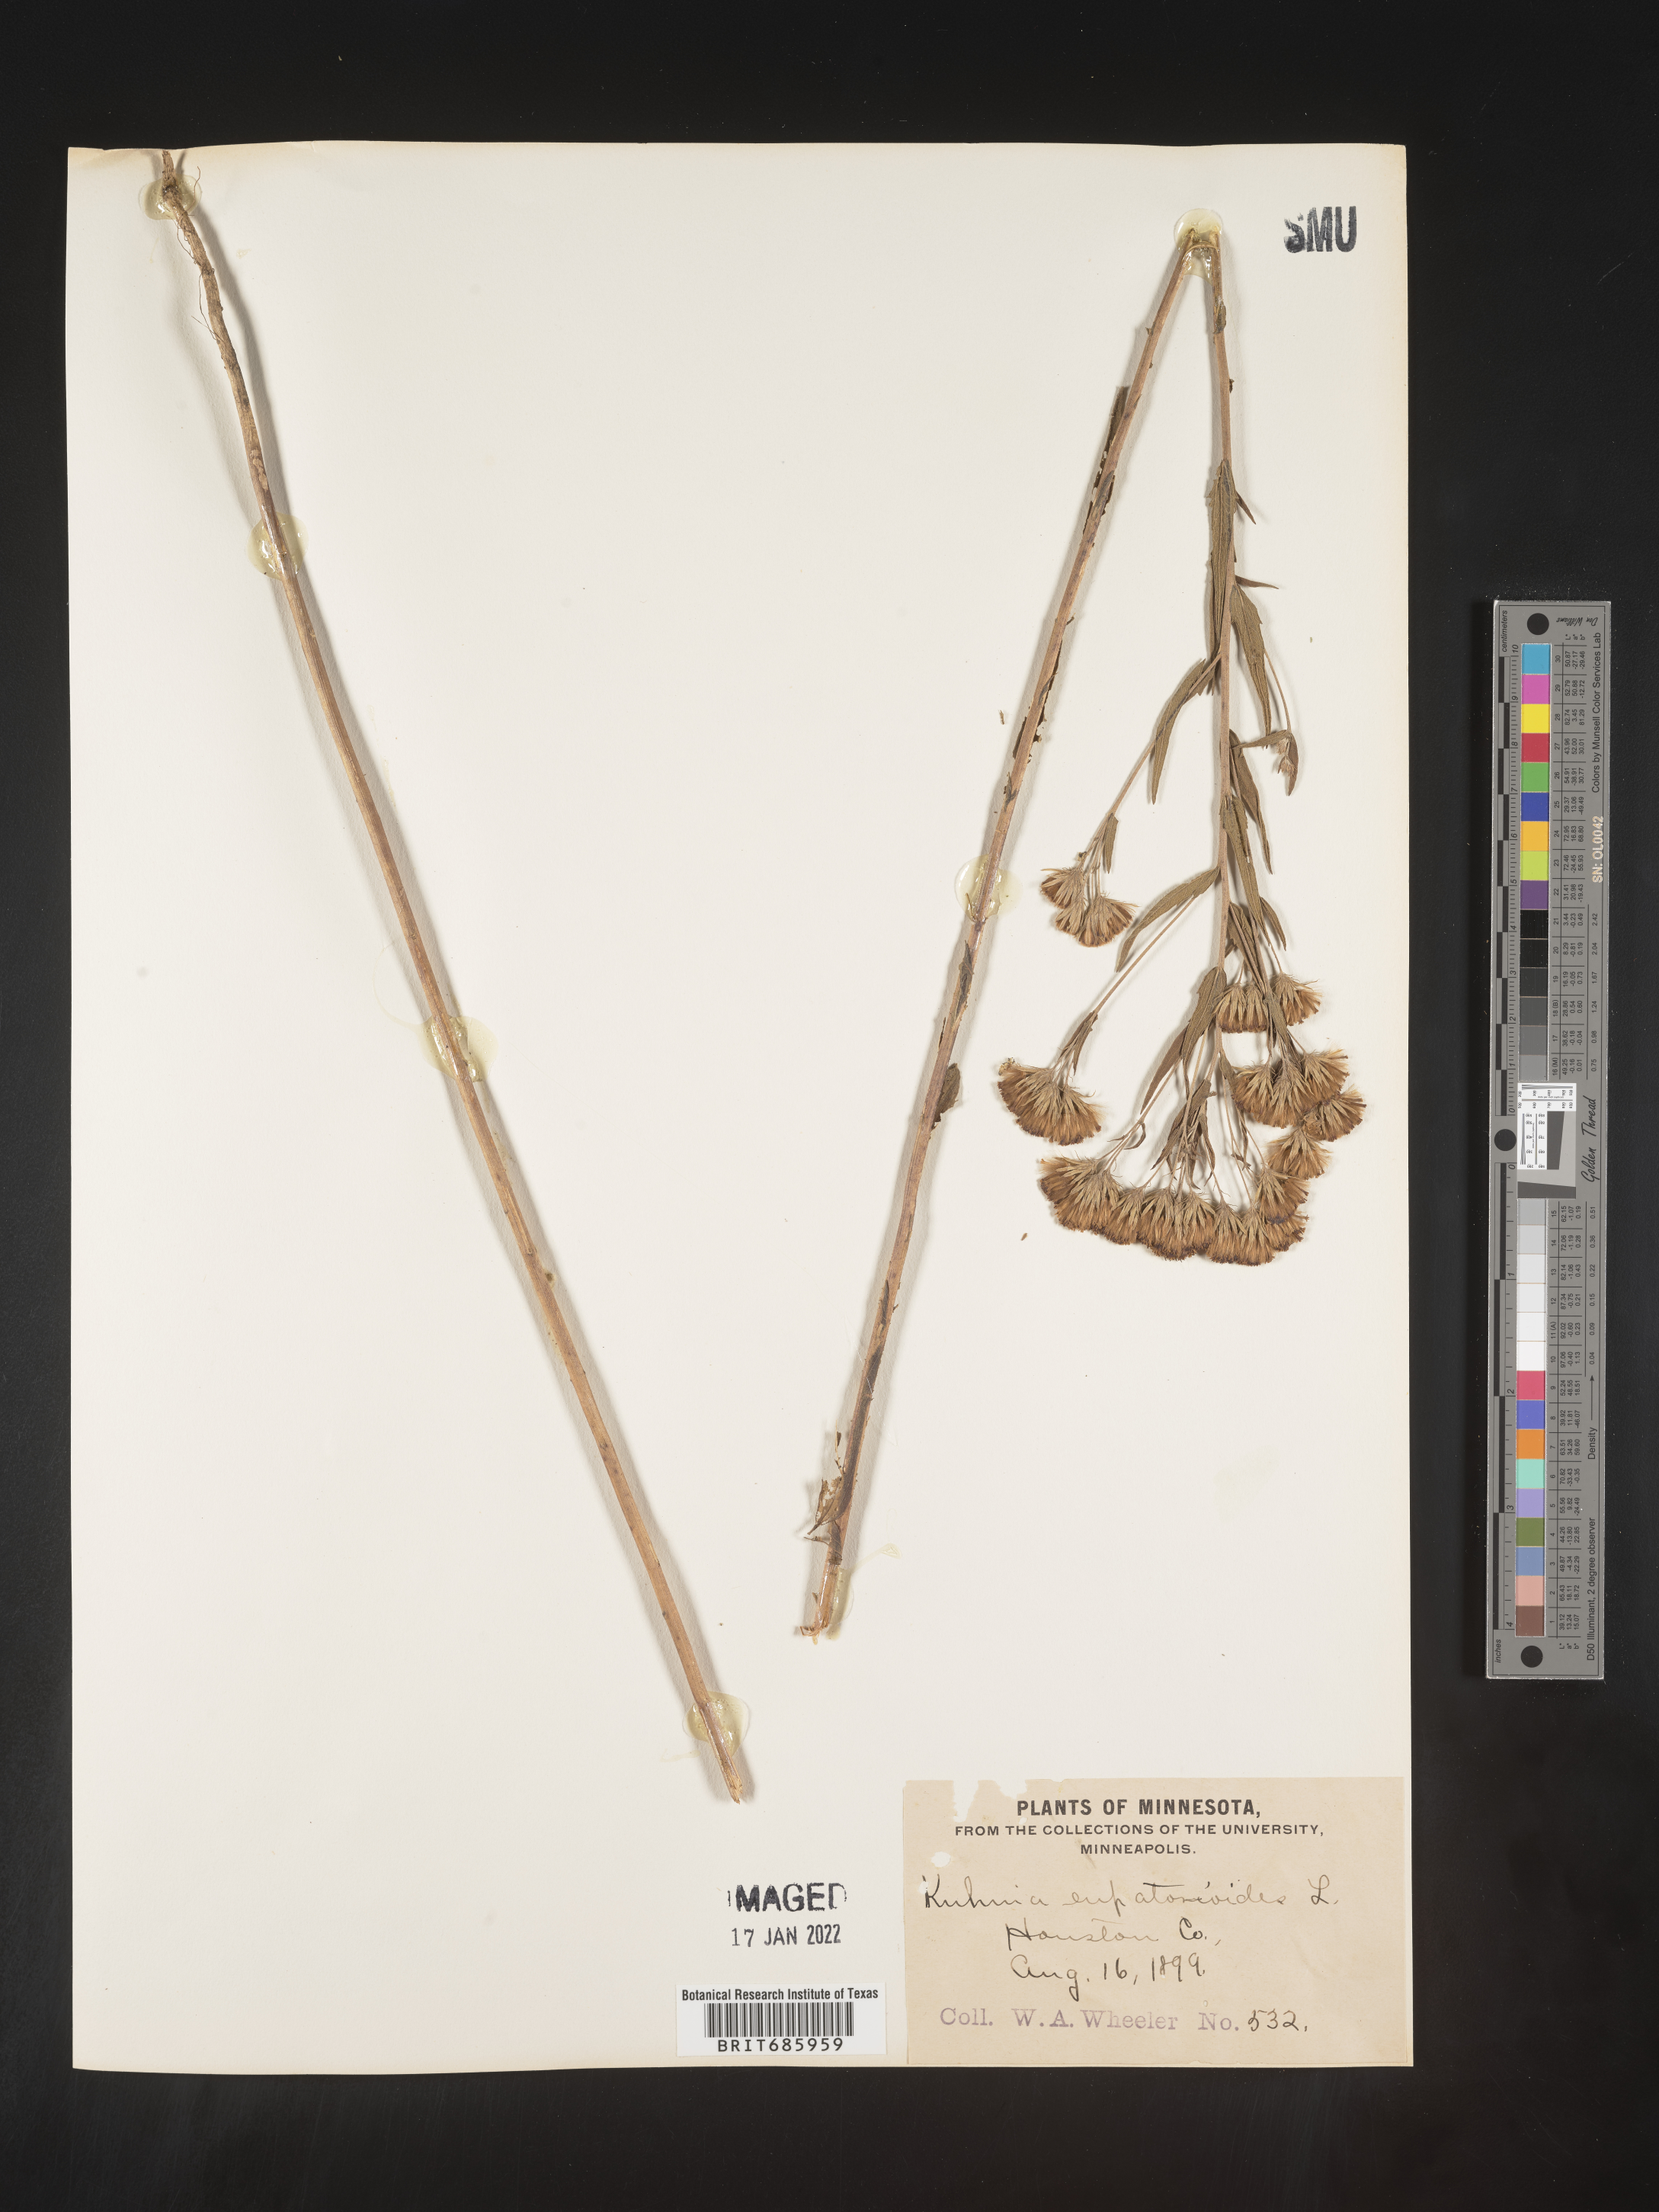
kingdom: Plantae
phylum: Tracheophyta
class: Magnoliopsida
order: Asterales
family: Asteraceae
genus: Brickellia
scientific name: Brickellia eupatorioides
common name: False boneset
